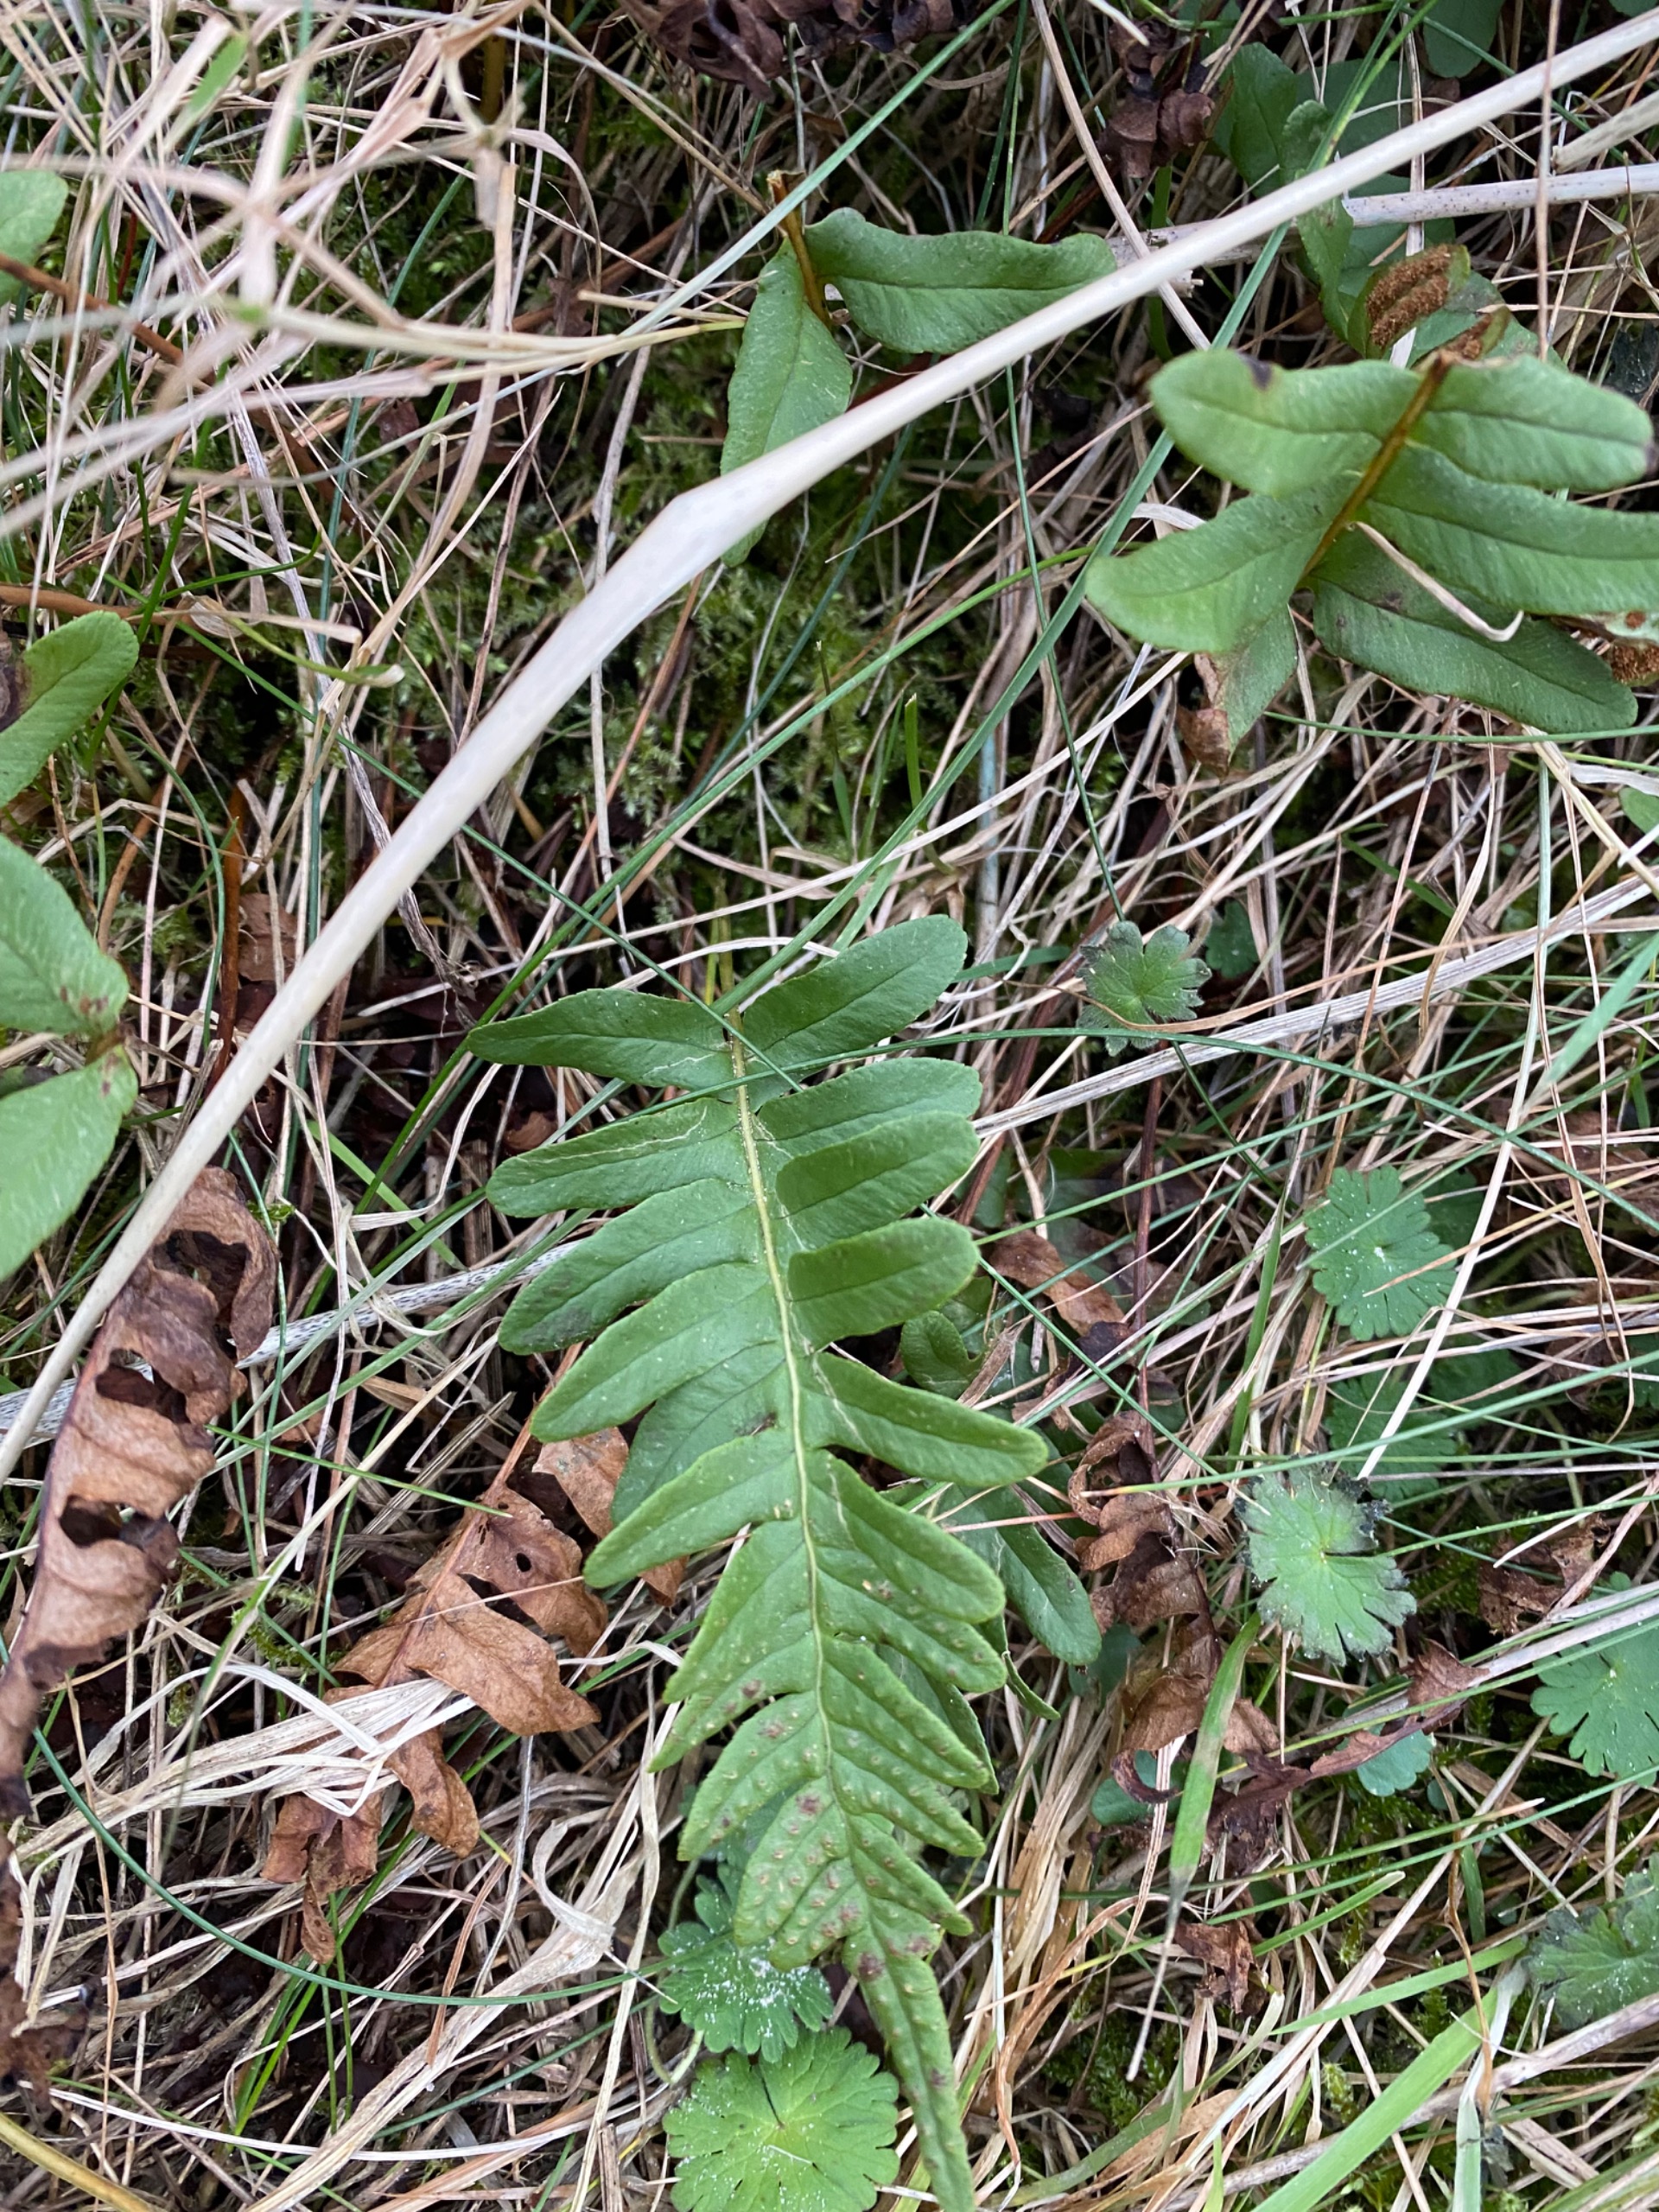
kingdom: Plantae
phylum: Tracheophyta
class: Polypodiopsida
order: Polypodiales
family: Polypodiaceae
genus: Polypodium
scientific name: Polypodium vulgare
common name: Almindelig engelsød
